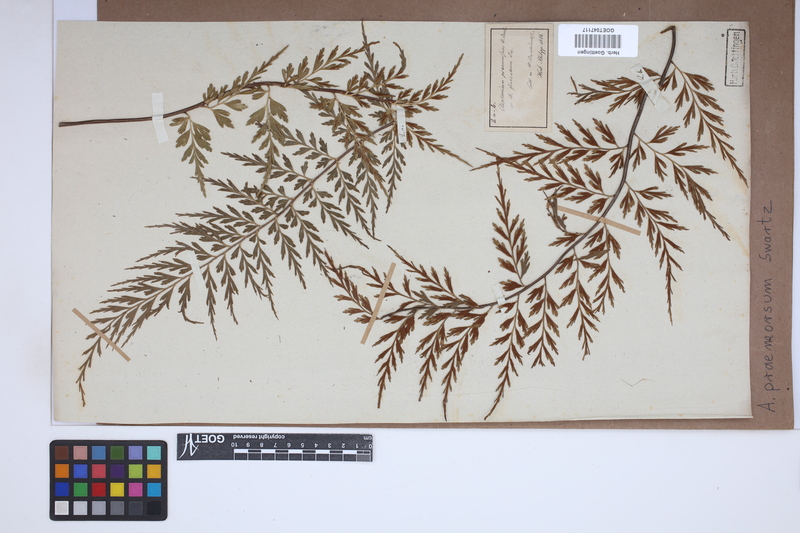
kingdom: Plantae
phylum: Tracheophyta
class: Polypodiopsida
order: Polypodiales
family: Aspleniaceae
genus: Asplenium
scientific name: Asplenium praemorsum
